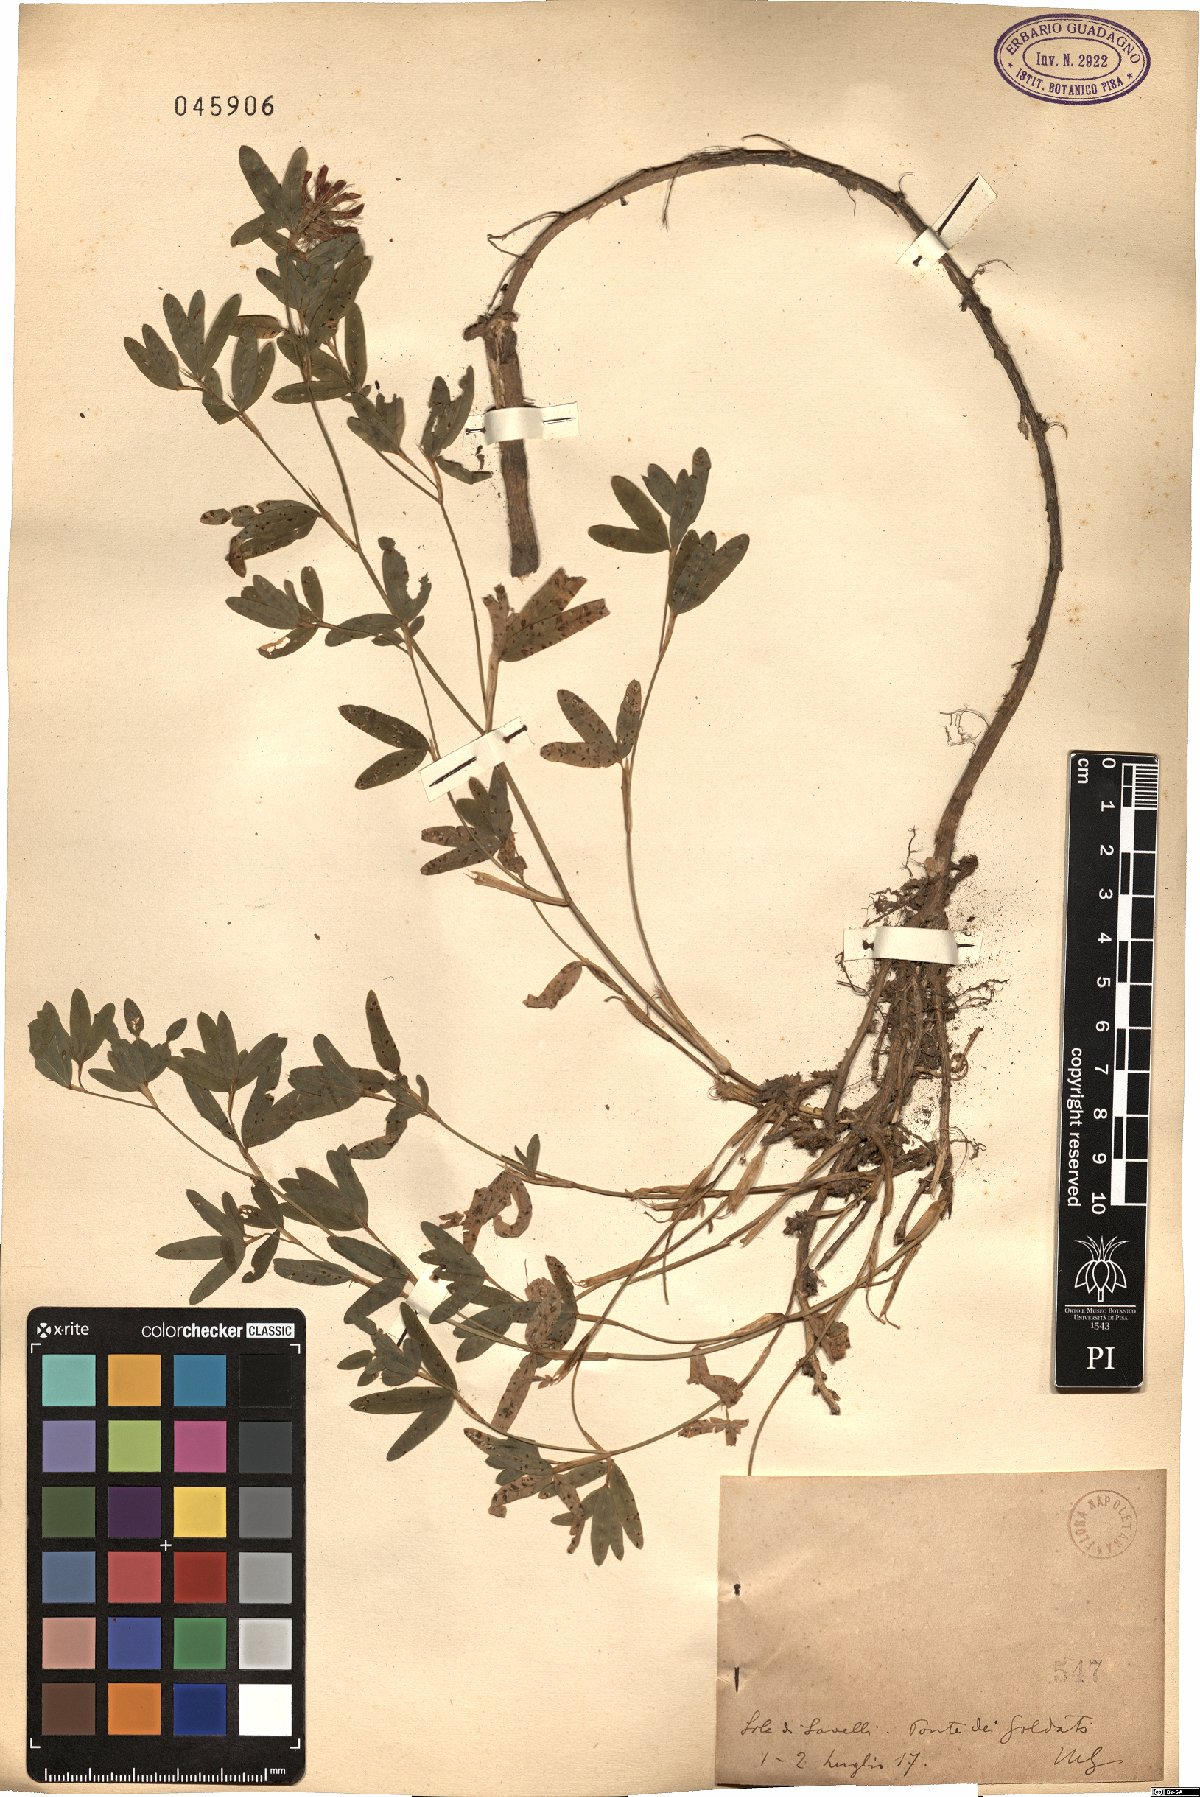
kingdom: Plantae
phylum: Tracheophyta
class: Magnoliopsida
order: Fabales
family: Fabaceae
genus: Trifolium
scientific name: Trifolium
